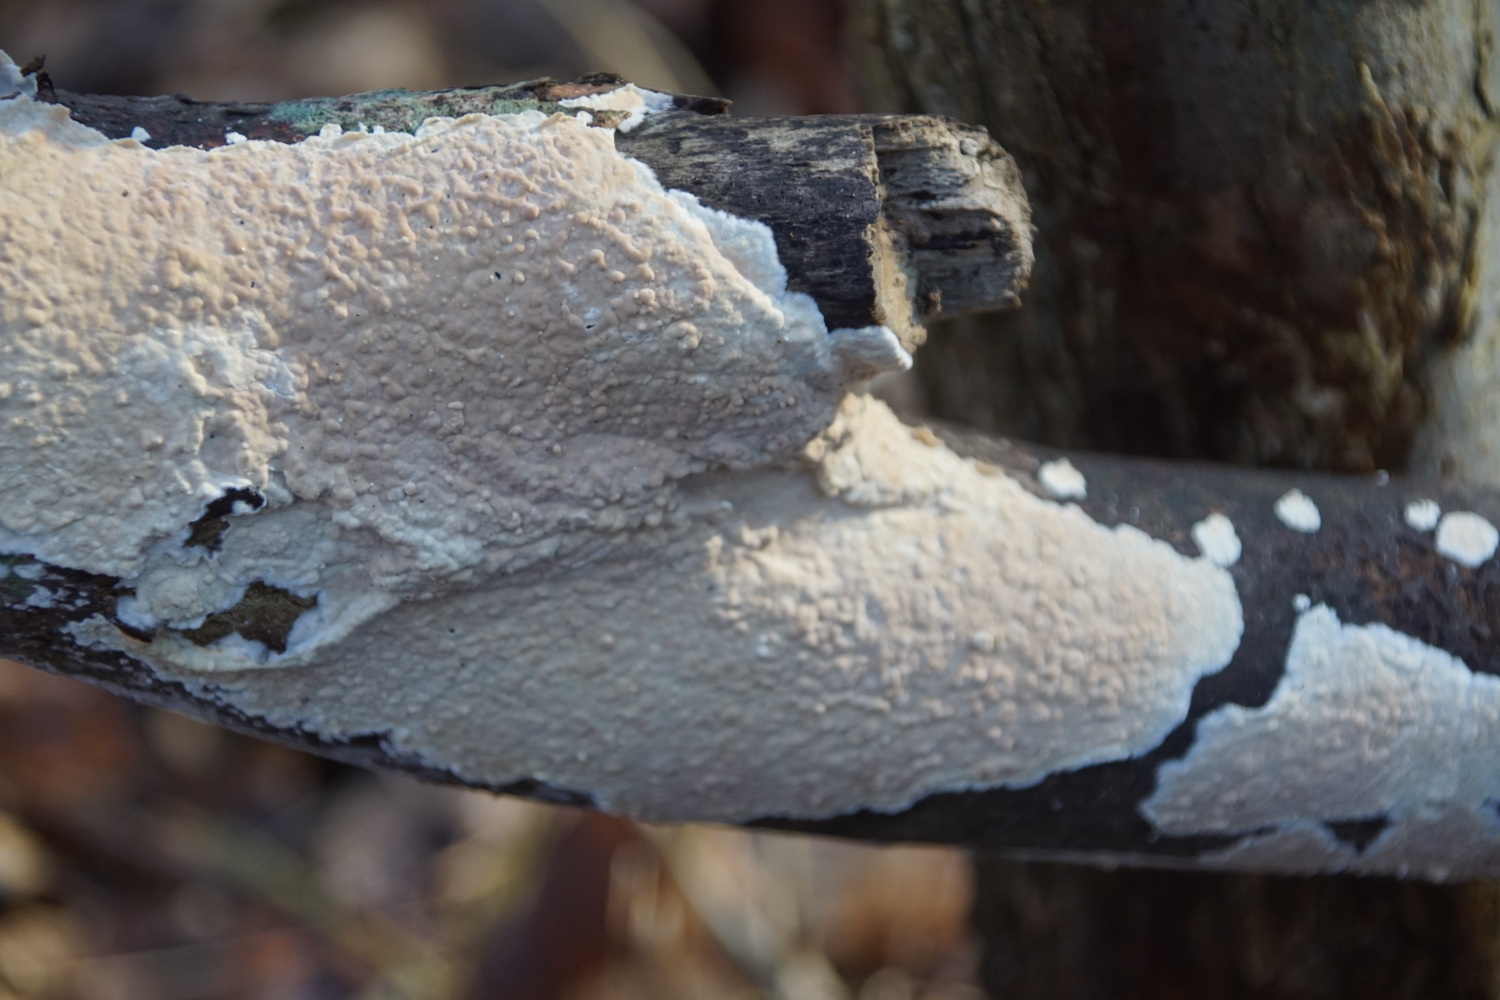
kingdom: Fungi
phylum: Basidiomycota
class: Agaricomycetes
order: Agaricales
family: Physalacriaceae
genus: Cylindrobasidium
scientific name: Cylindrobasidium evolvens
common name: sprækkehinde
